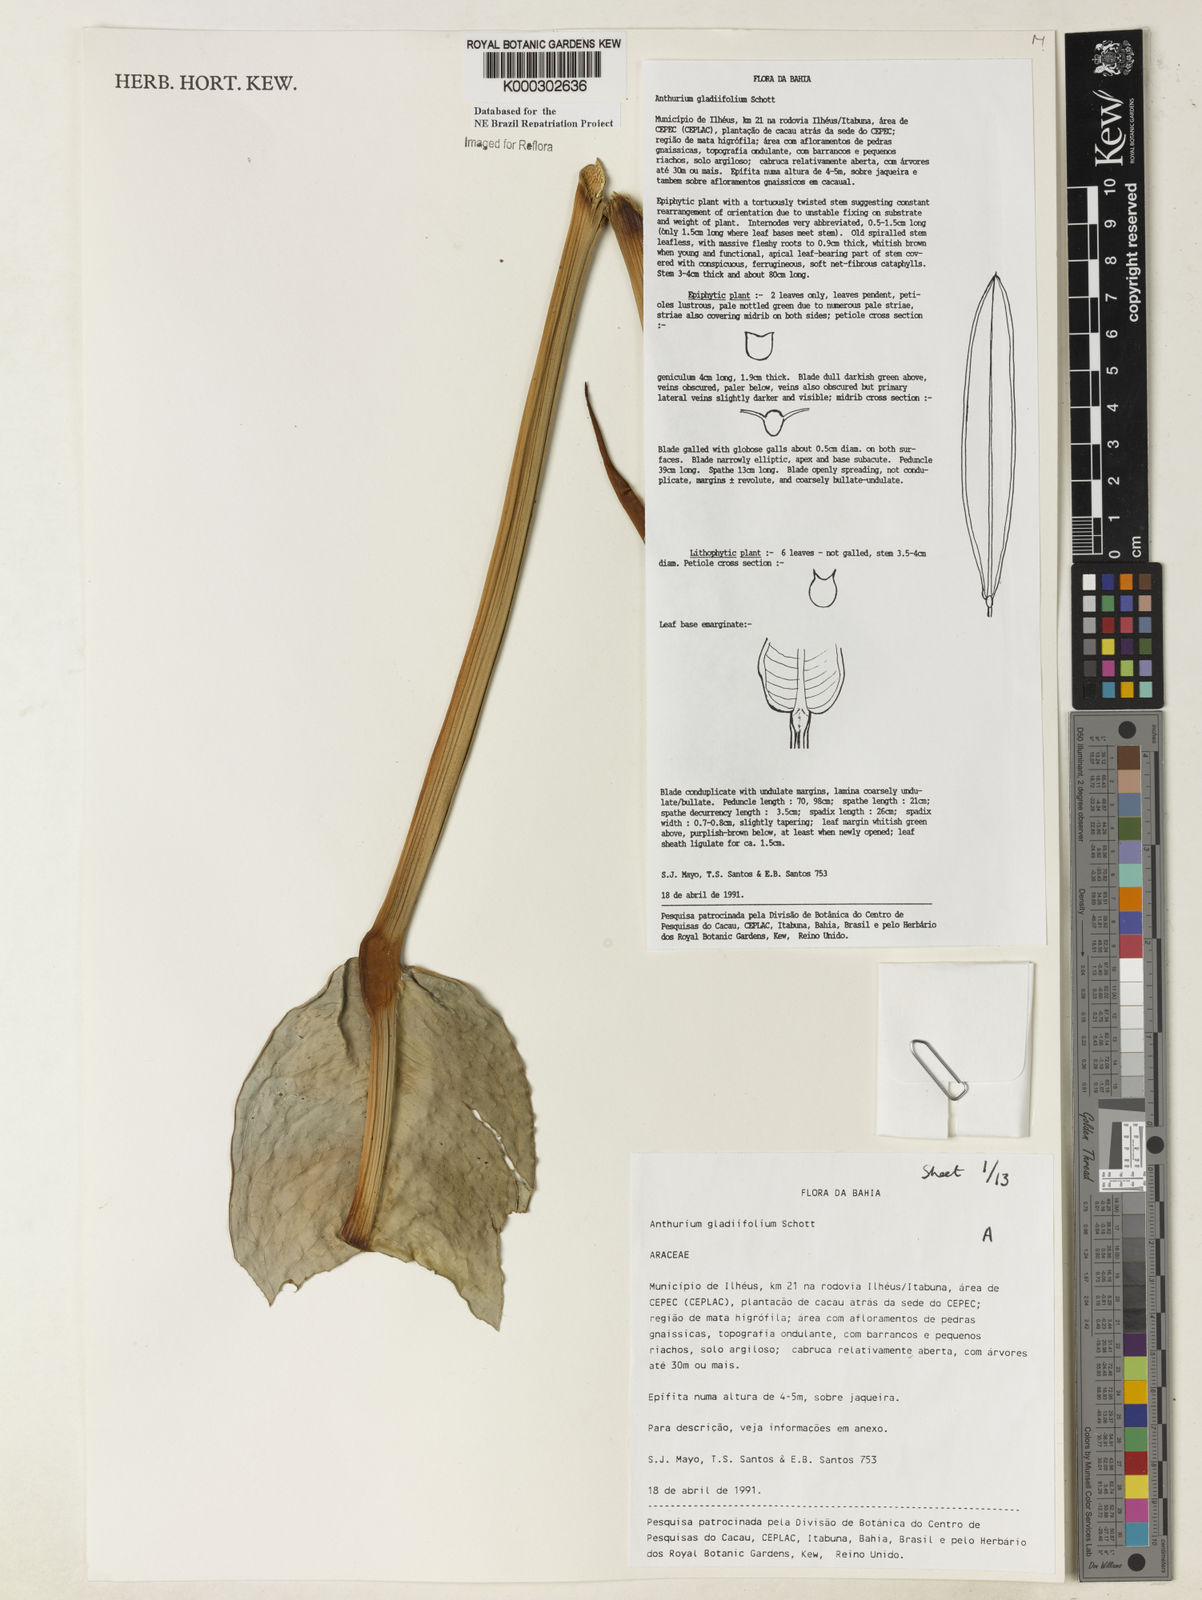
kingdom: Plantae
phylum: Tracheophyta
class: Liliopsida
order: Alismatales
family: Araceae
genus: Anthurium
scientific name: Anthurium gladiifolium
